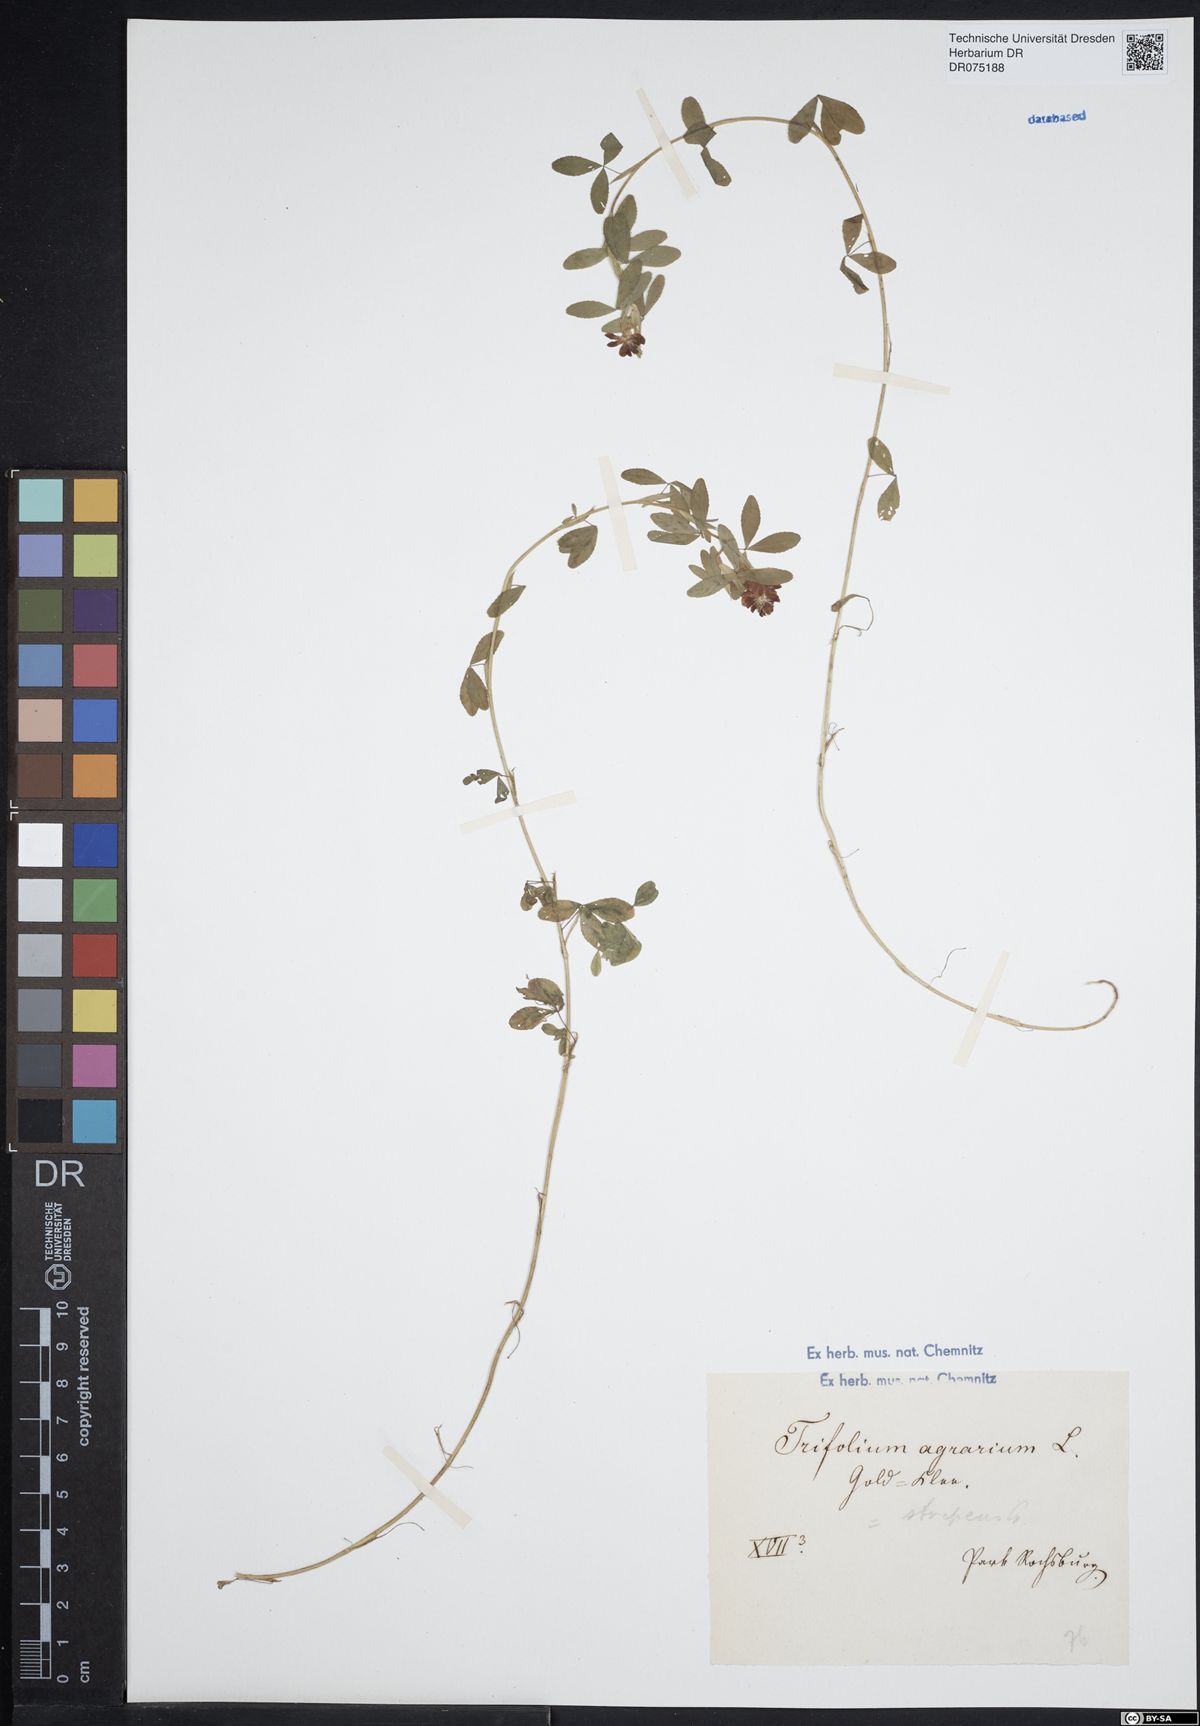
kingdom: Plantae
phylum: Tracheophyta
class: Magnoliopsida
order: Fabales
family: Fabaceae
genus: Trifolium
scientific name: Trifolium aureum
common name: Golden clover
